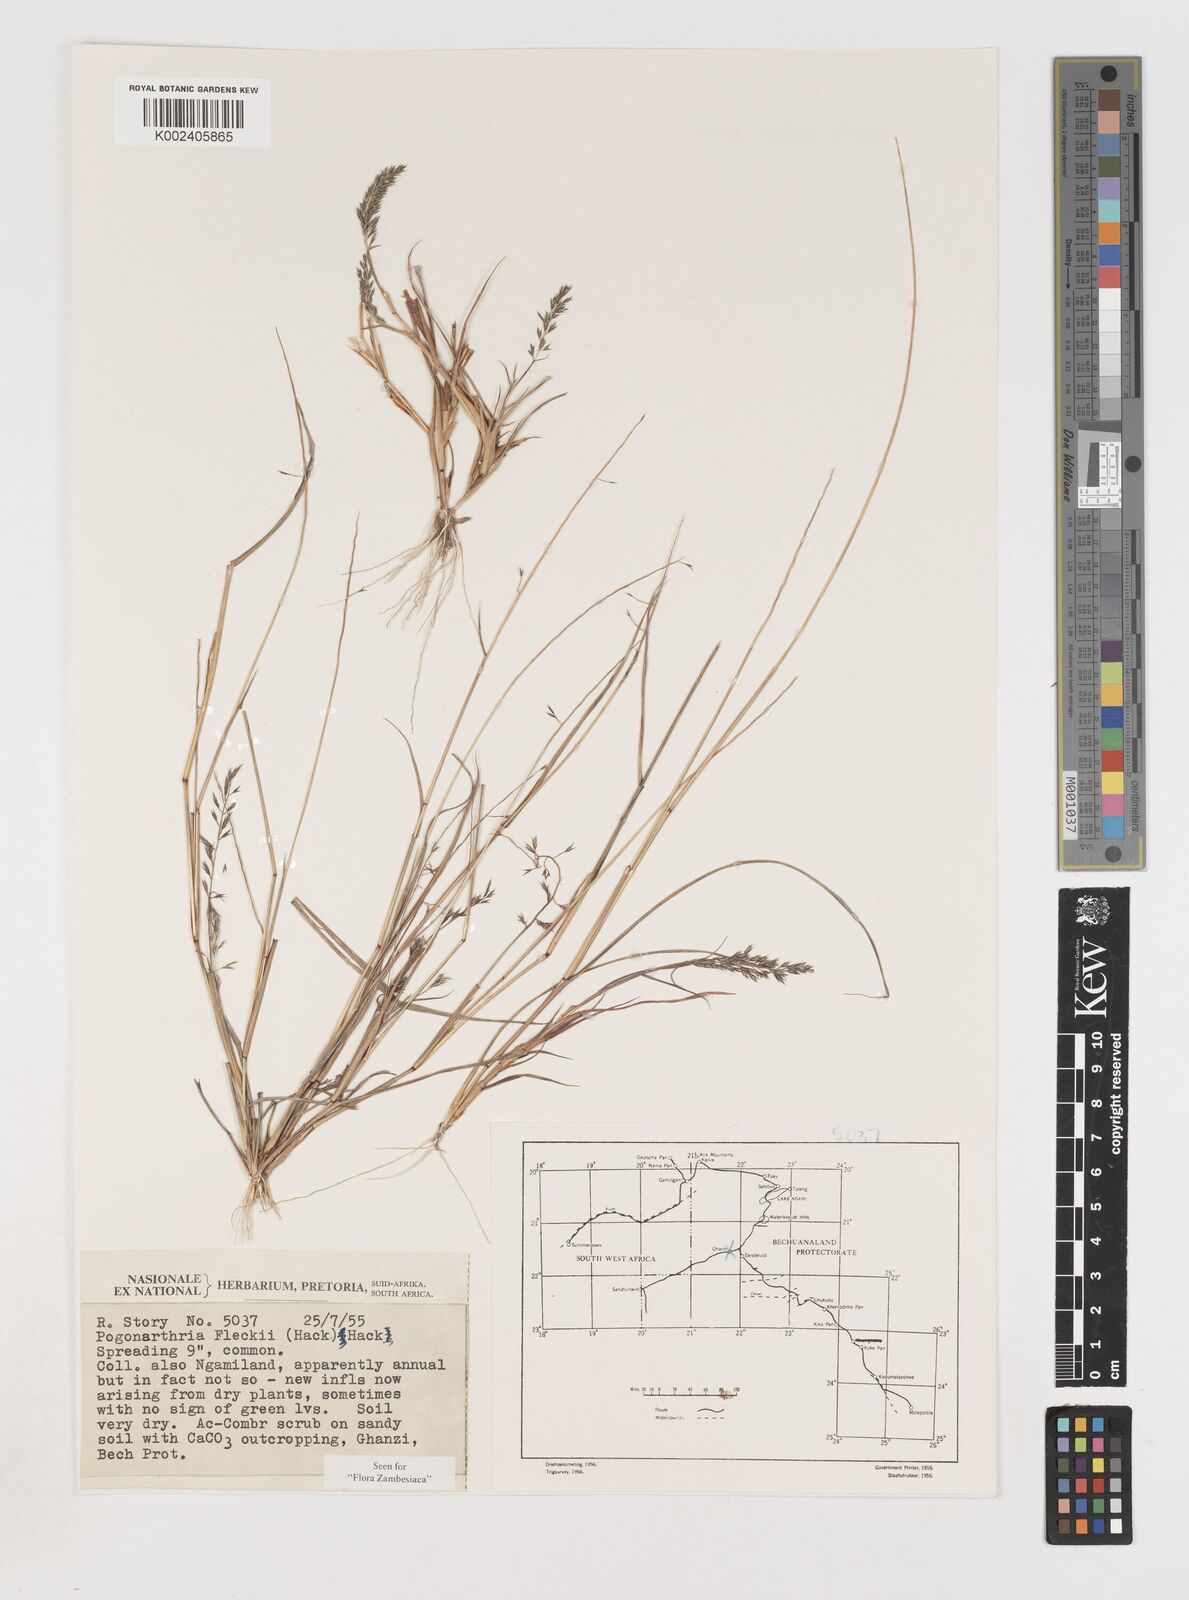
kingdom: Plantae
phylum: Tracheophyta
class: Liliopsida
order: Poales
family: Poaceae
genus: Pogonarthria
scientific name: Pogonarthria fleckii
